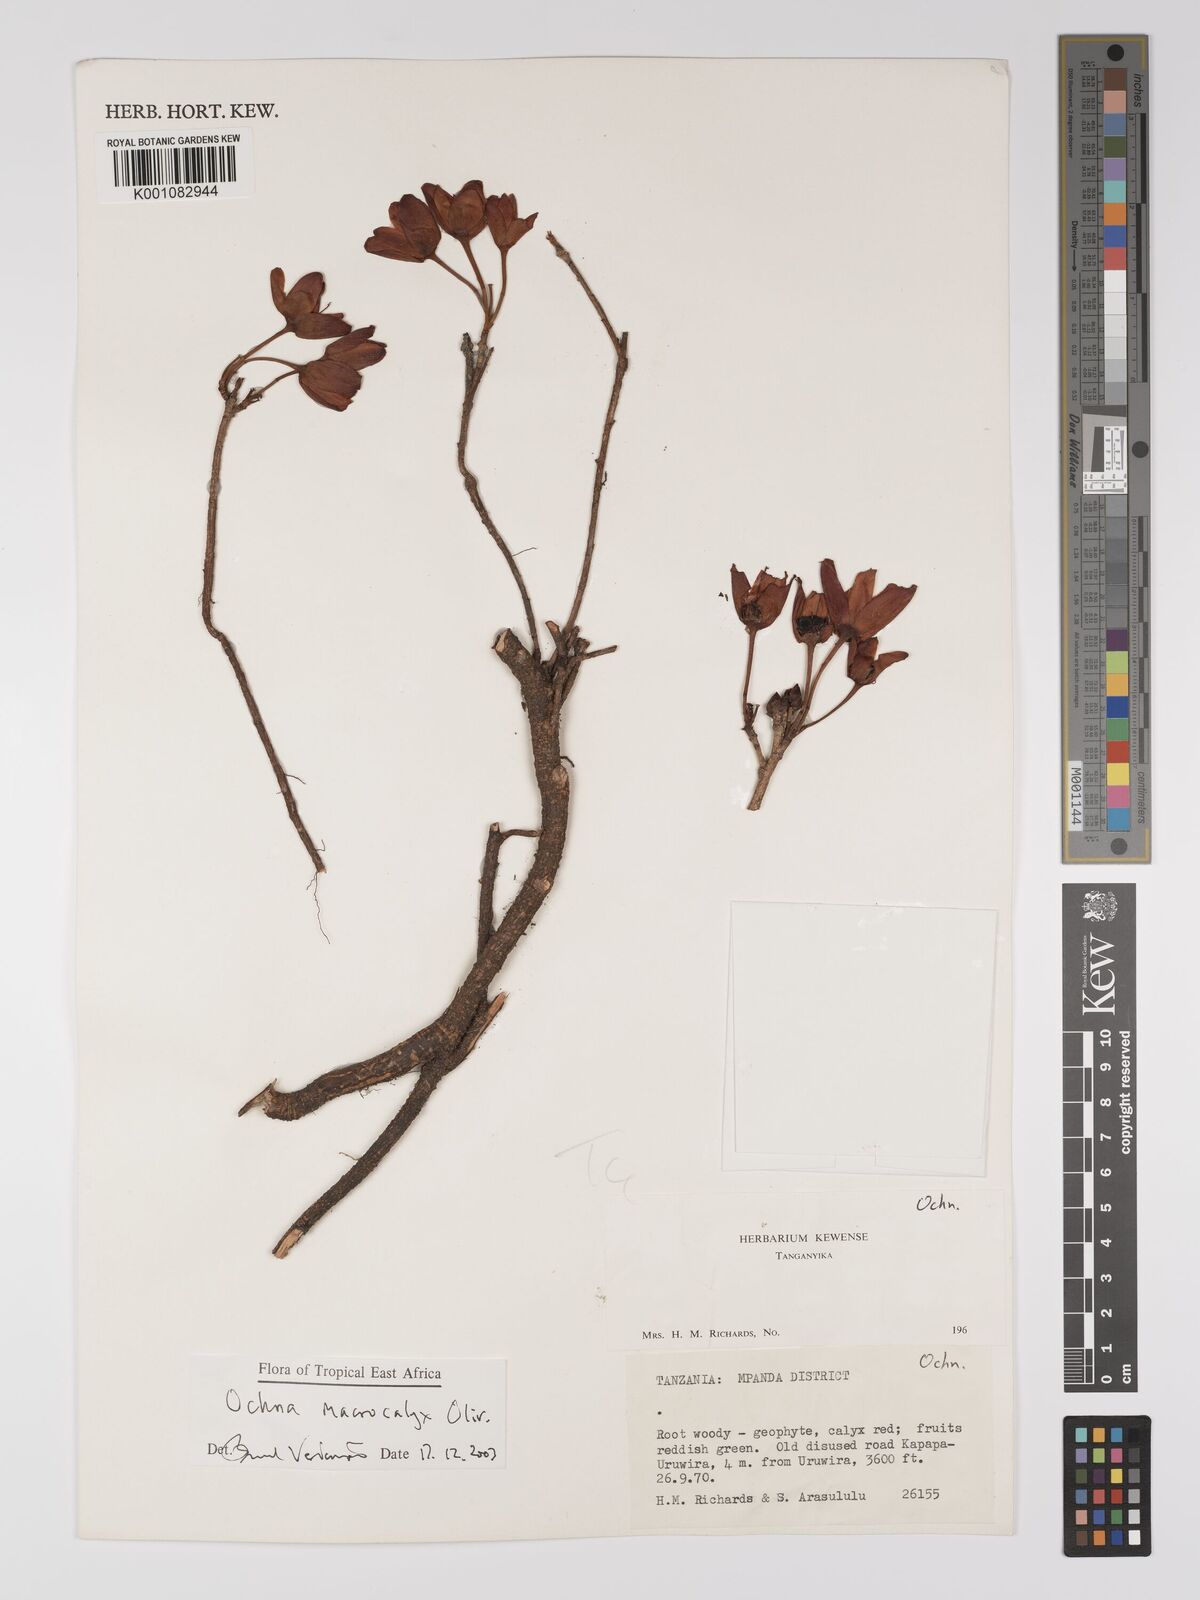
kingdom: Plantae
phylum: Tracheophyta
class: Magnoliopsida
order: Malpighiales
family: Ochnaceae
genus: Ochna
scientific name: Ochna macrocalyx
